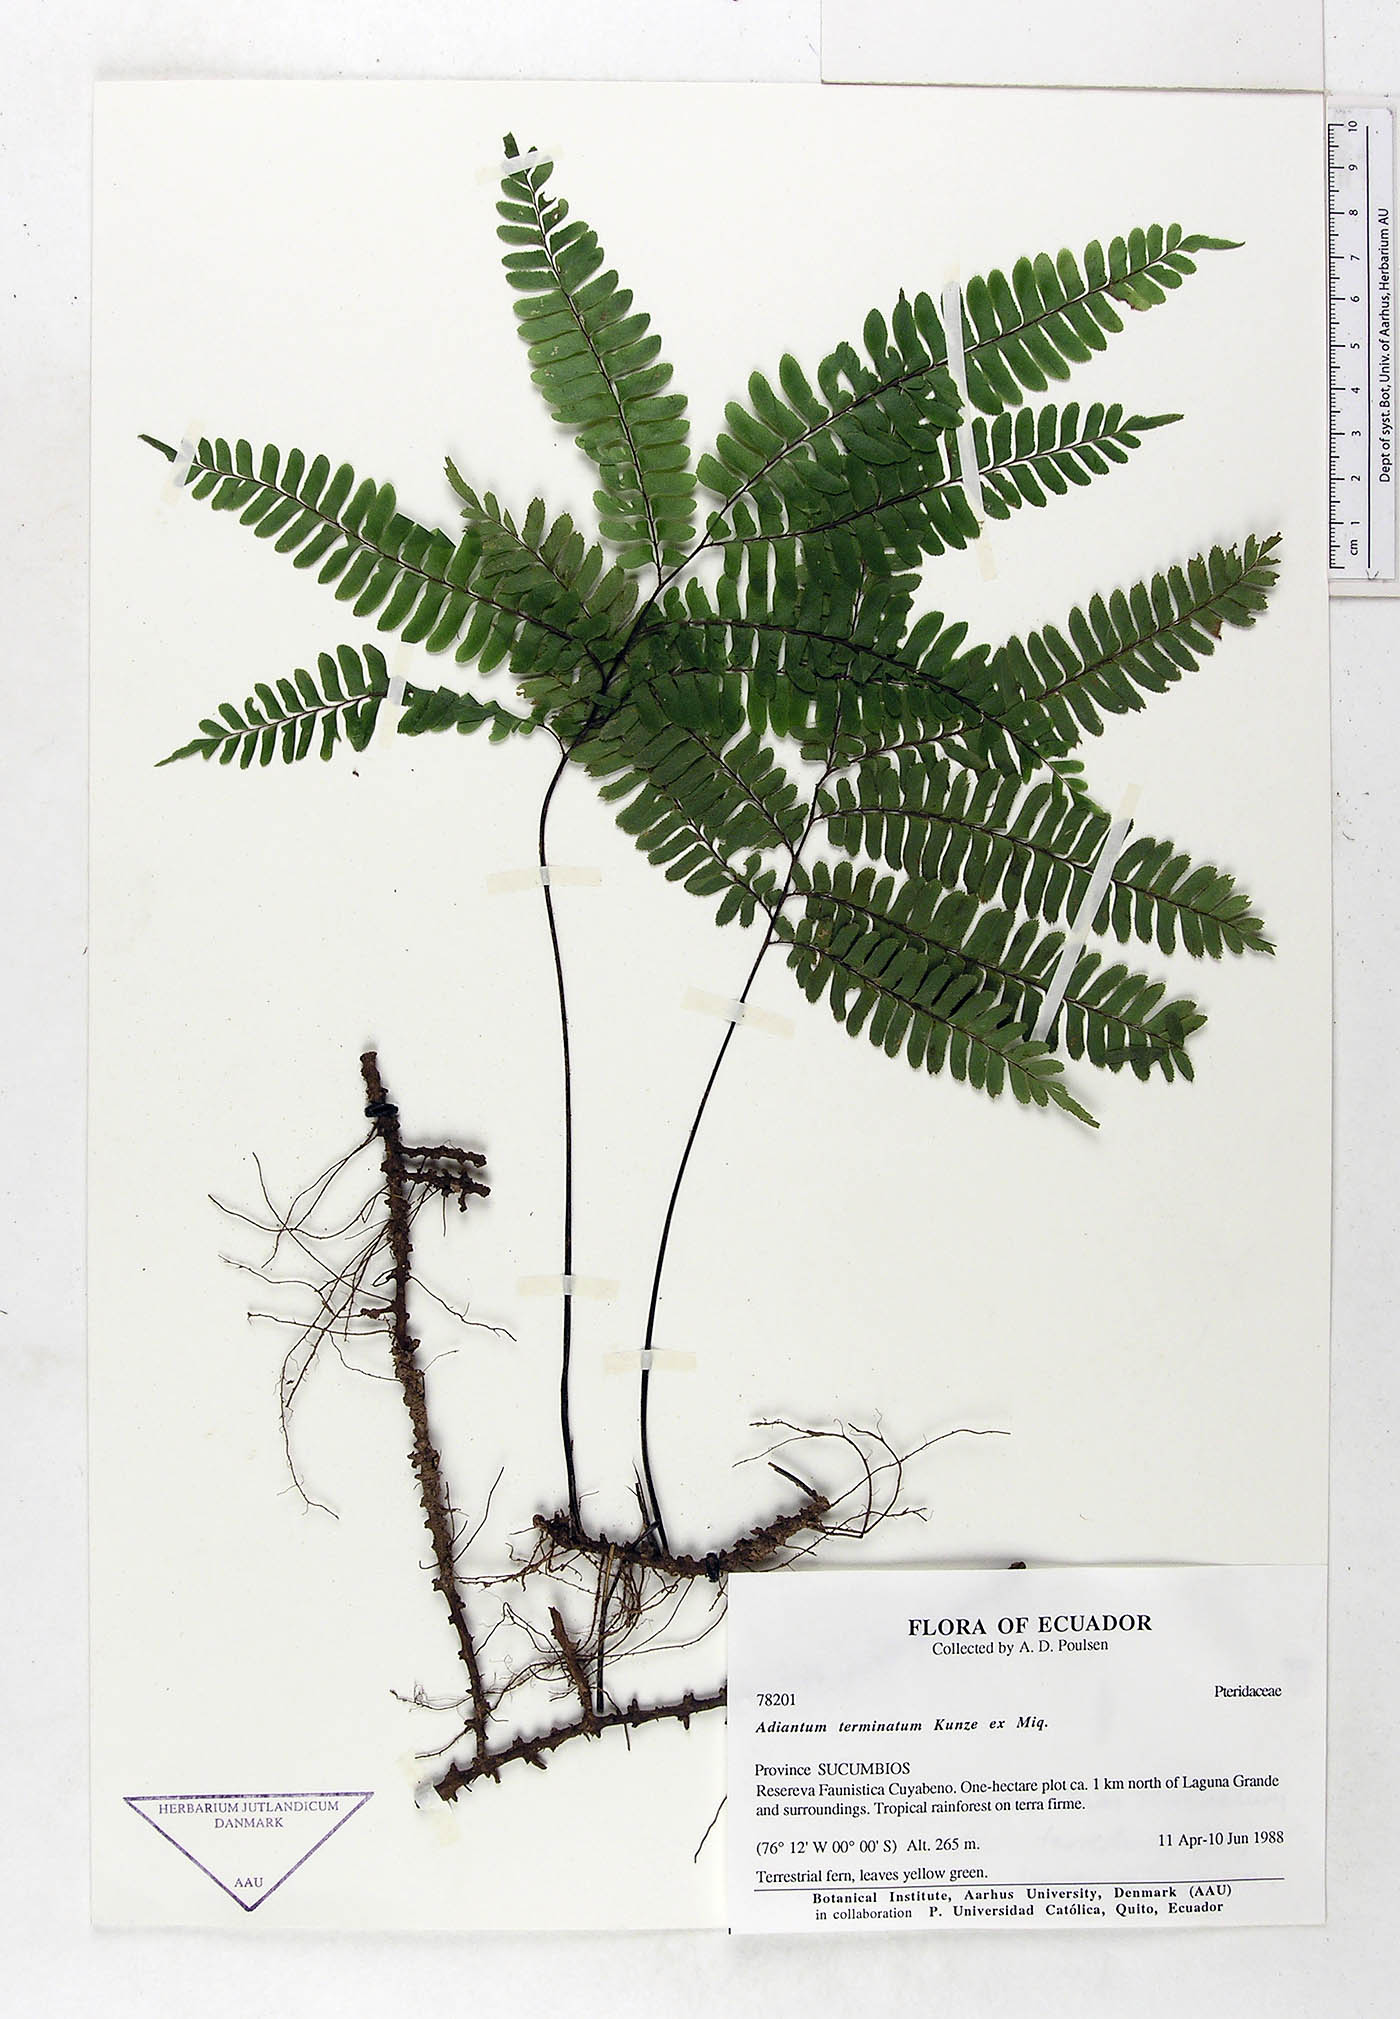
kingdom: Plantae
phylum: Tracheophyta
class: Polypodiopsida
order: Polypodiales
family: Pteridaceae
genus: Adiantum
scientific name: Adiantum terminatum
